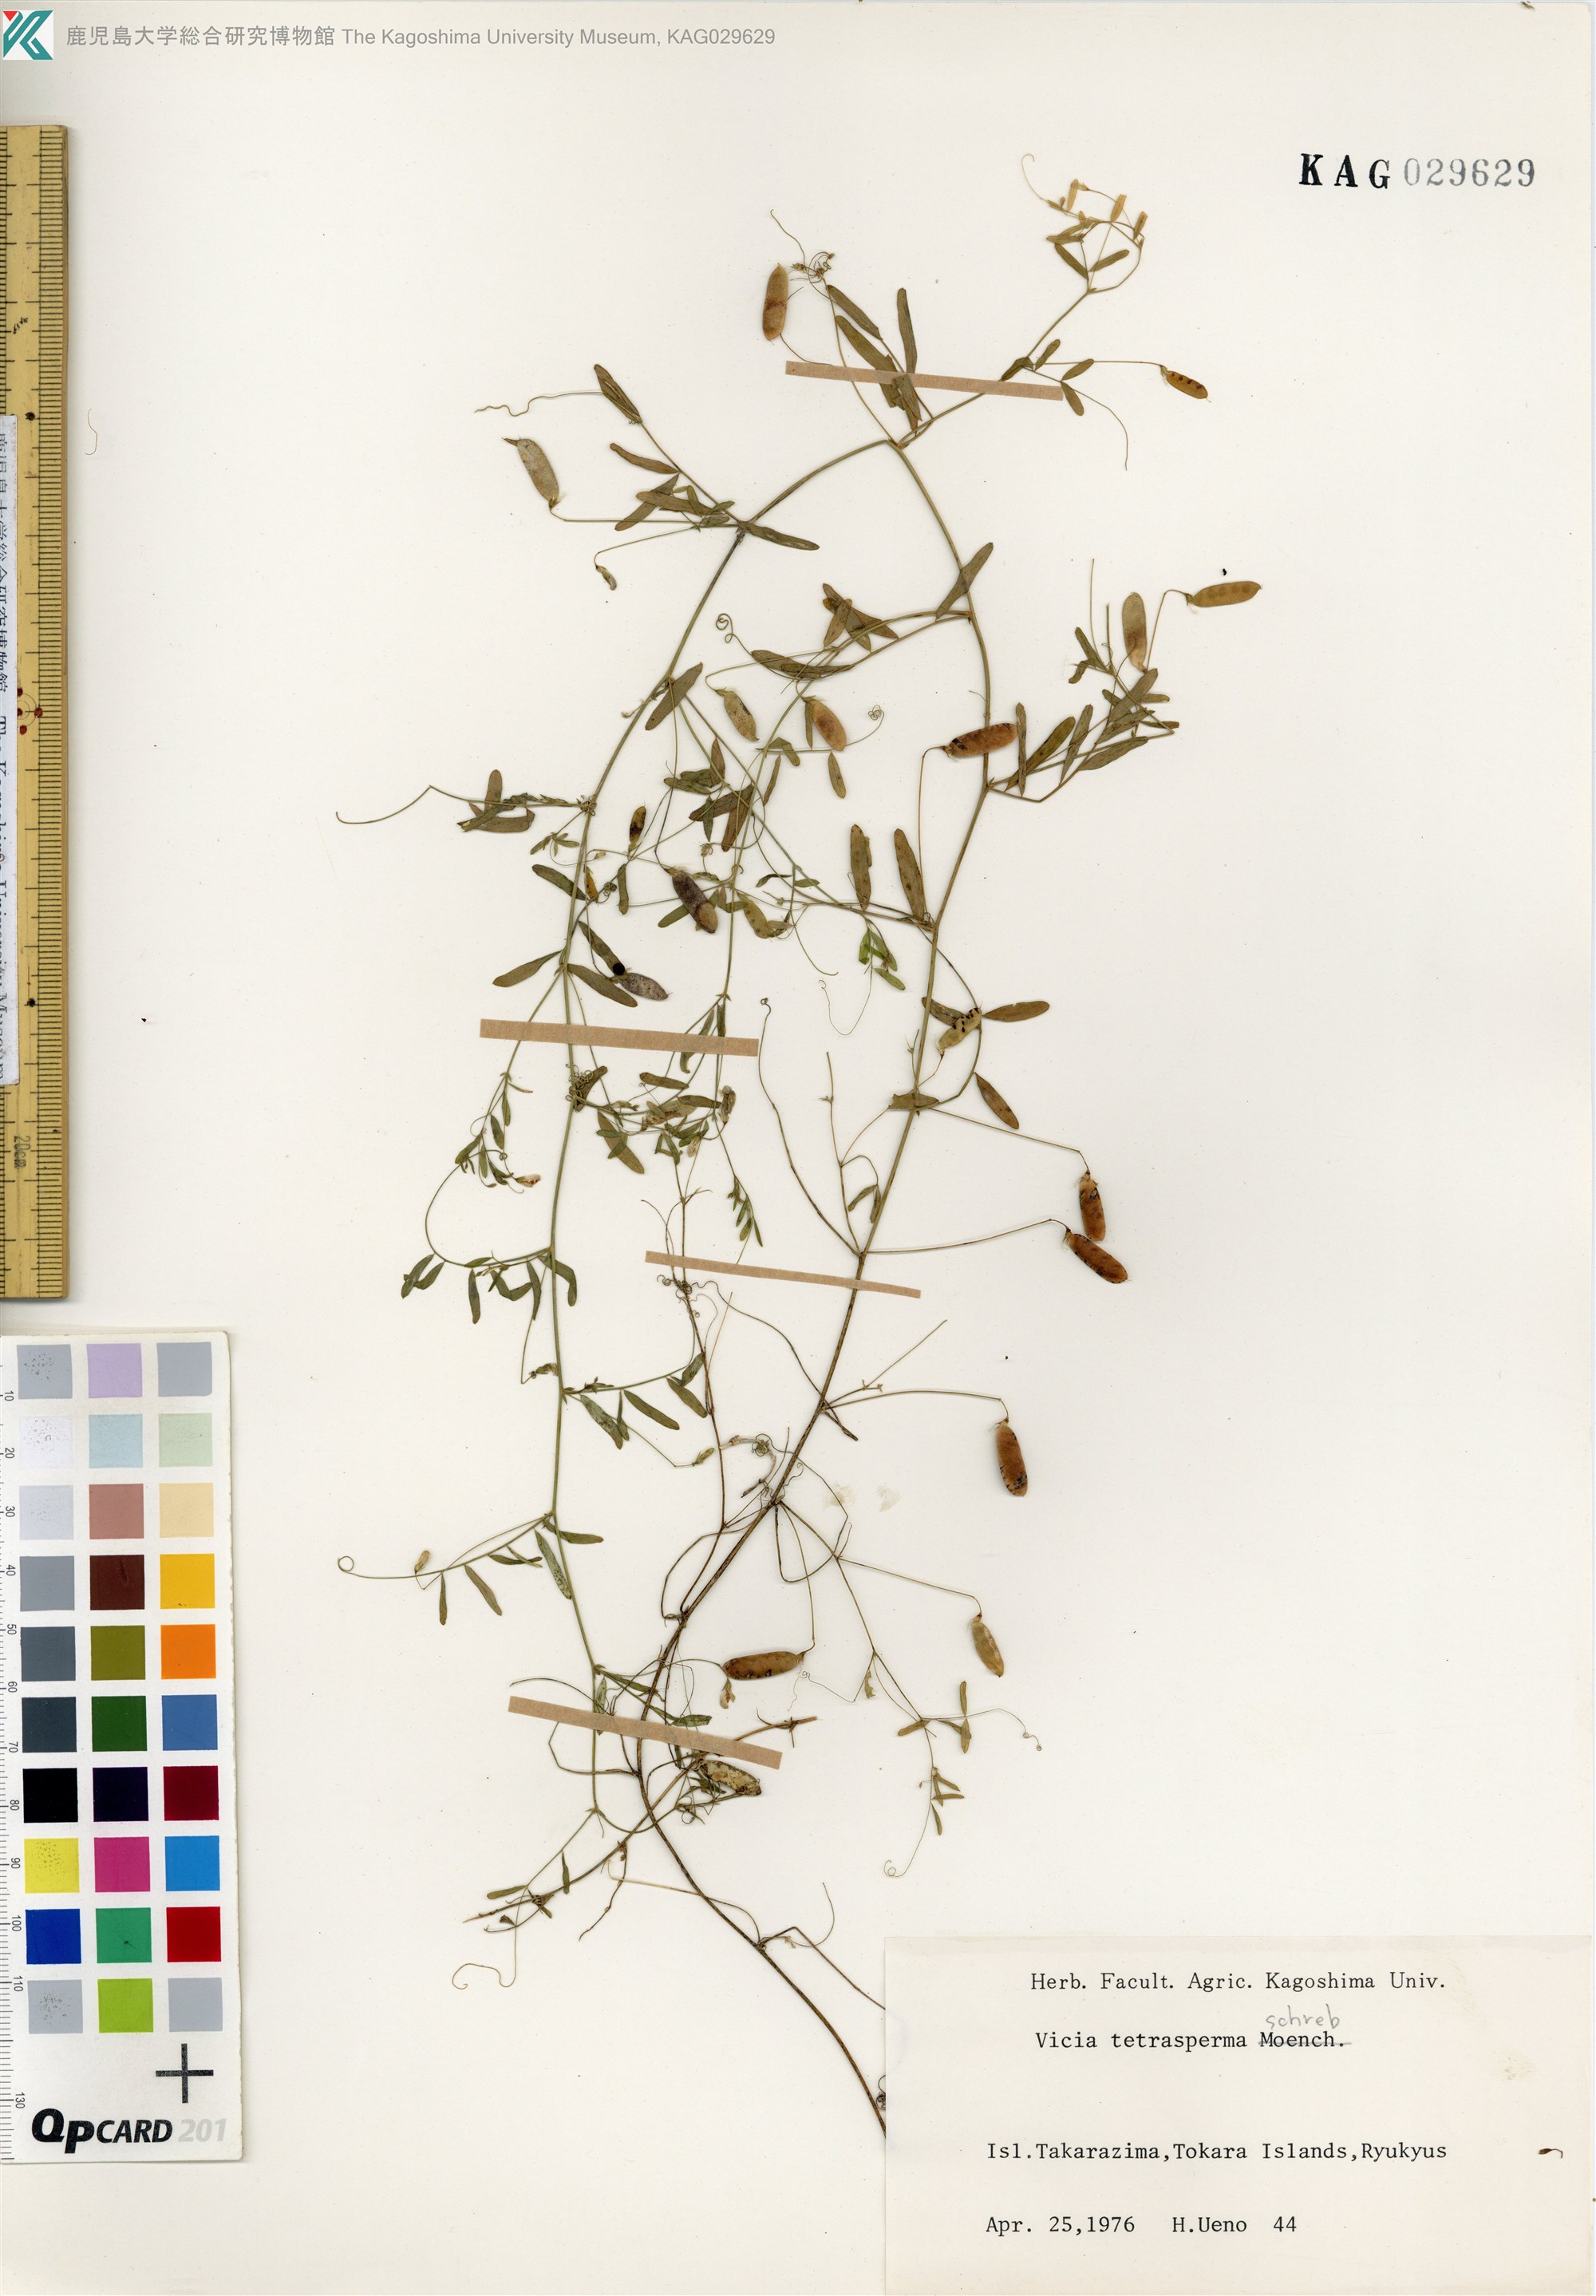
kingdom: Plantae
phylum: Tracheophyta
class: Magnoliopsida
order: Fabales
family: Fabaceae
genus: Vicia
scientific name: Vicia tetrasperma
